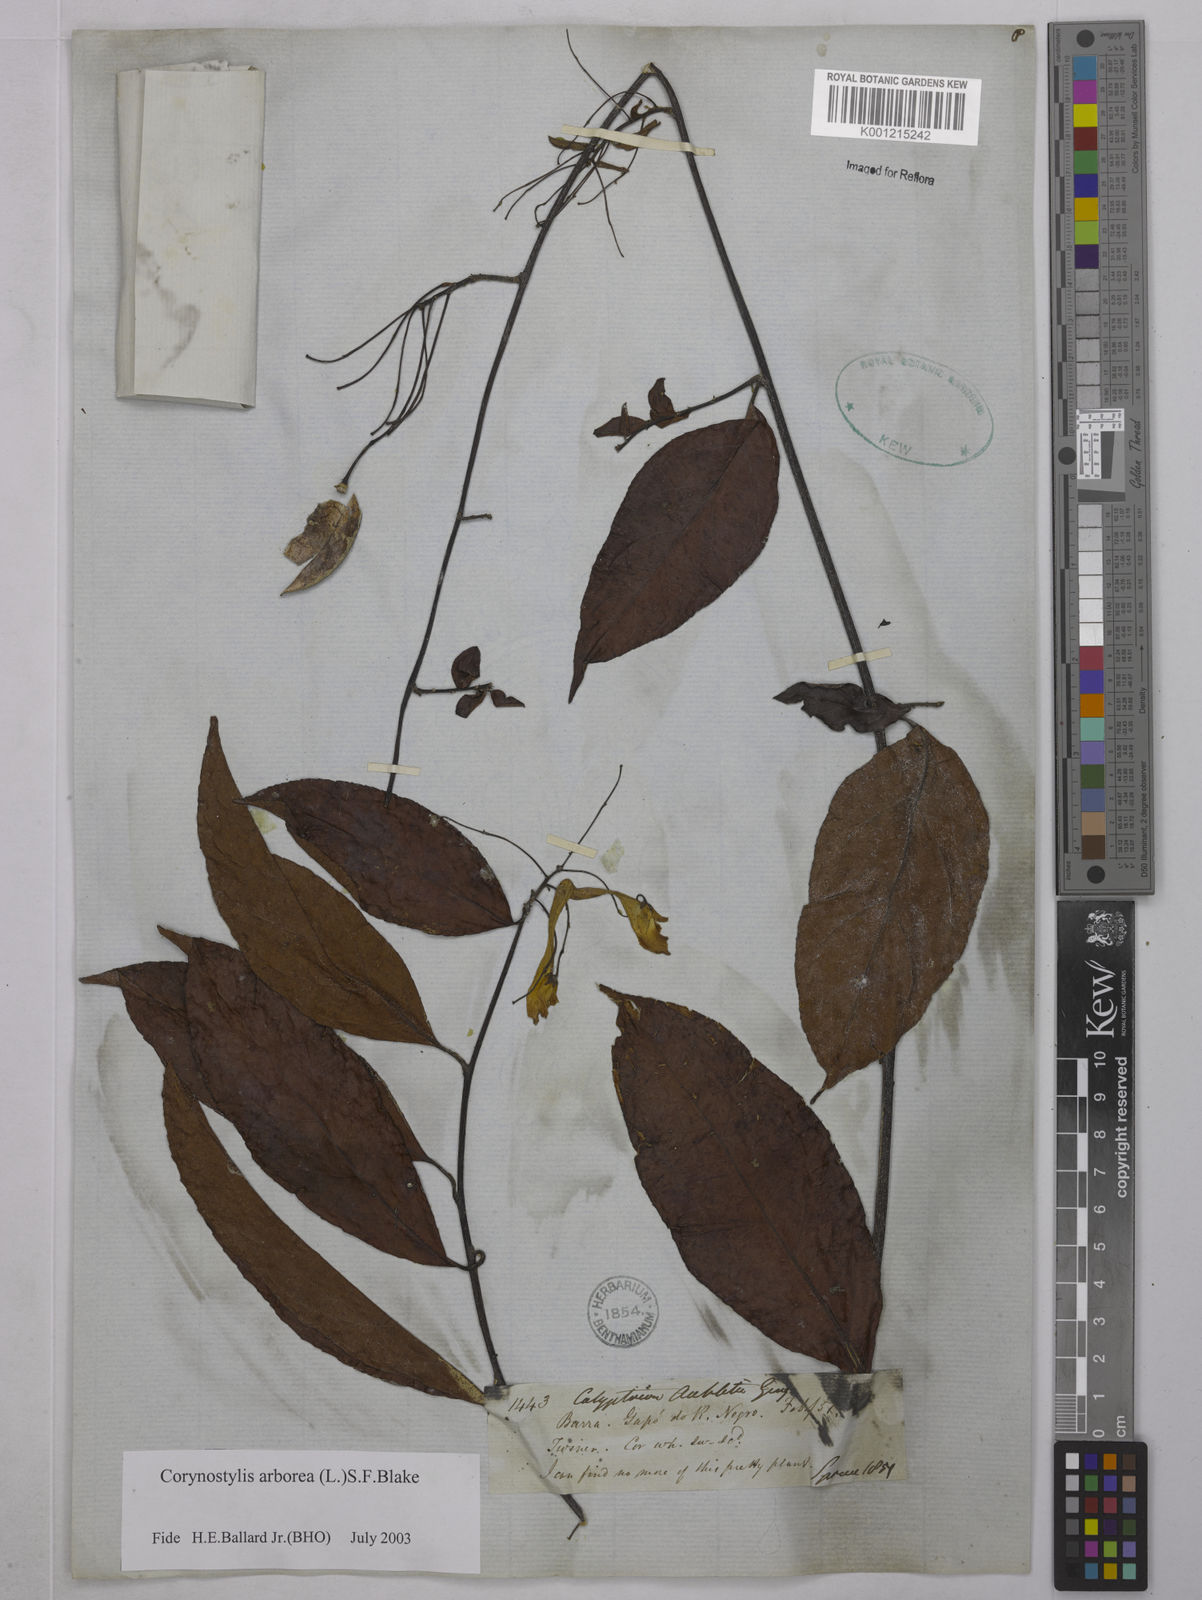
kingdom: Plantae
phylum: Tracheophyta
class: Magnoliopsida
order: Malpighiales
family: Violaceae
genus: Calyptrion
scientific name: Calyptrion arboreum
